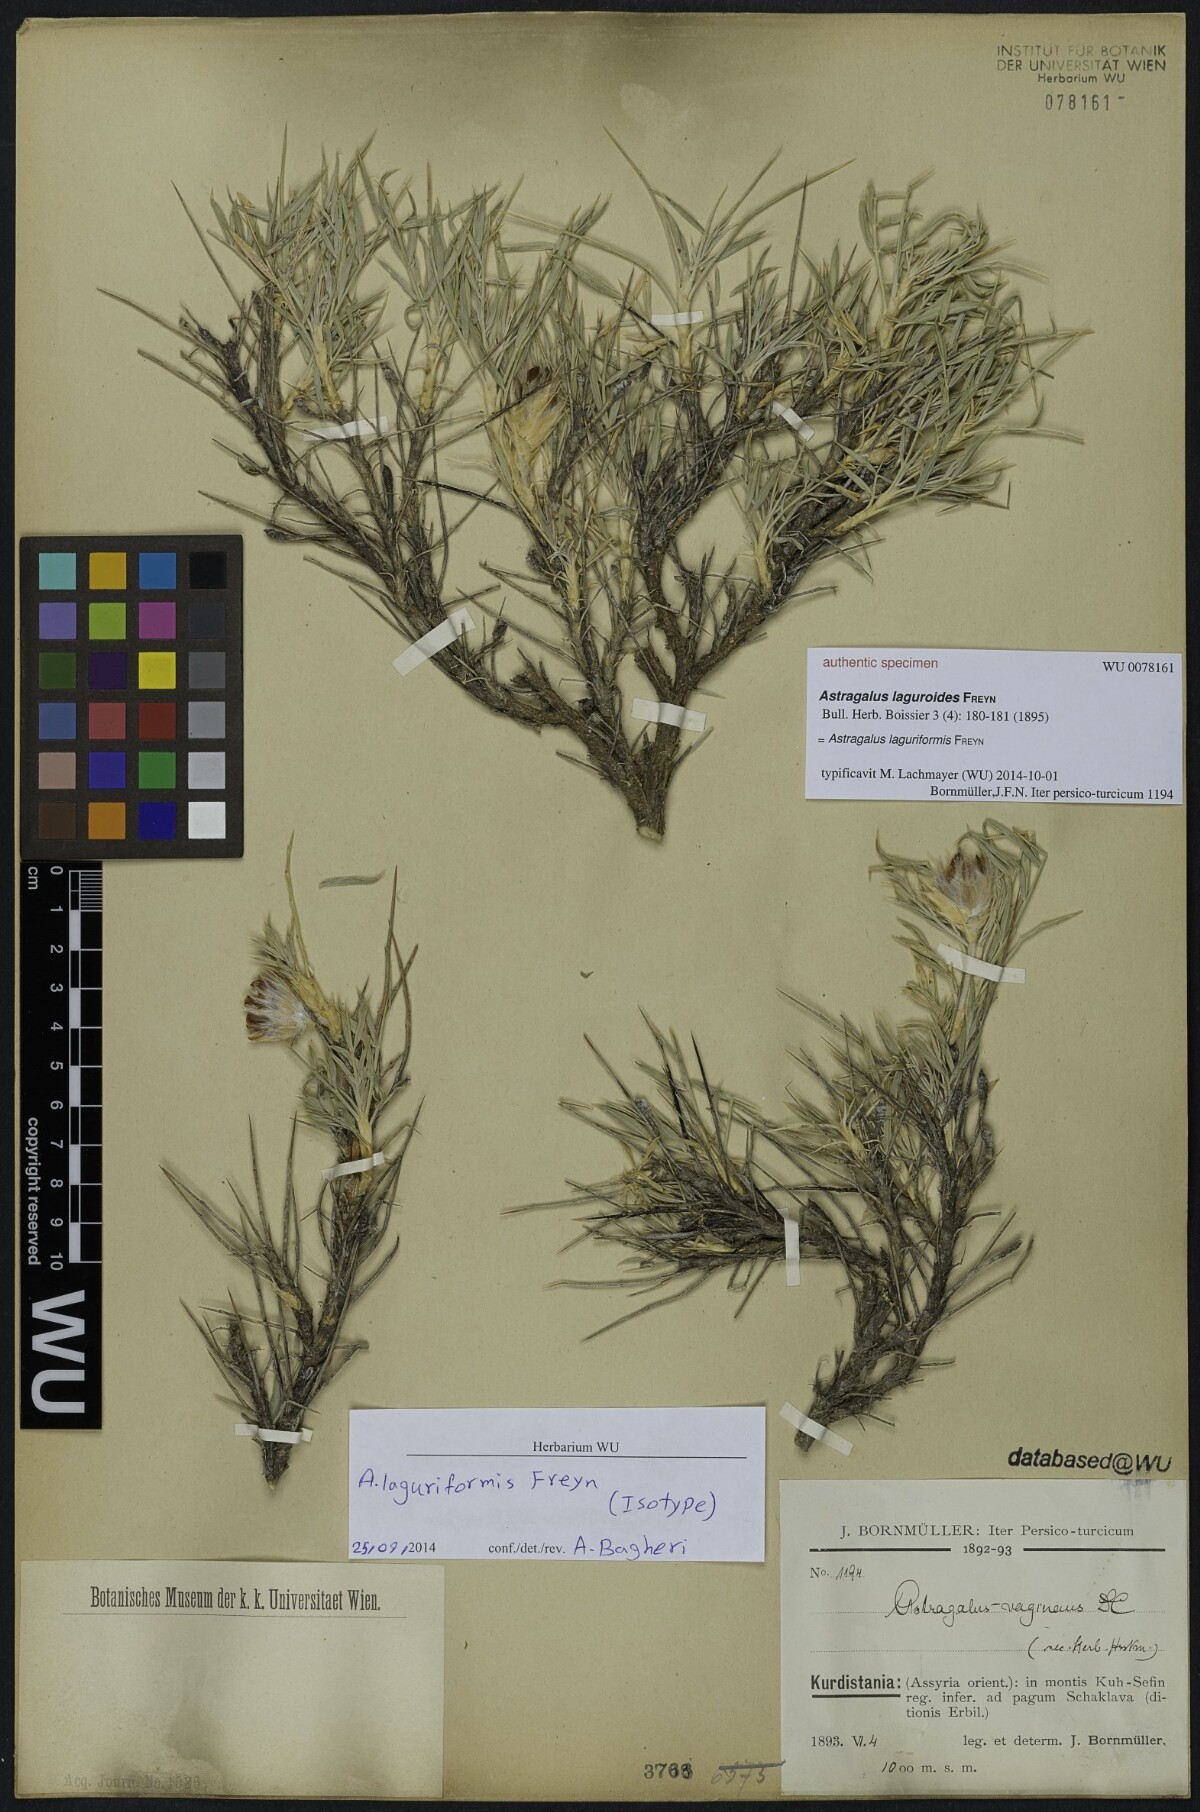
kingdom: Plantae
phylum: Tracheophyta
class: Magnoliopsida
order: Fabales
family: Fabaceae
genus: Astragalus
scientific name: Astragalus laguriformis
